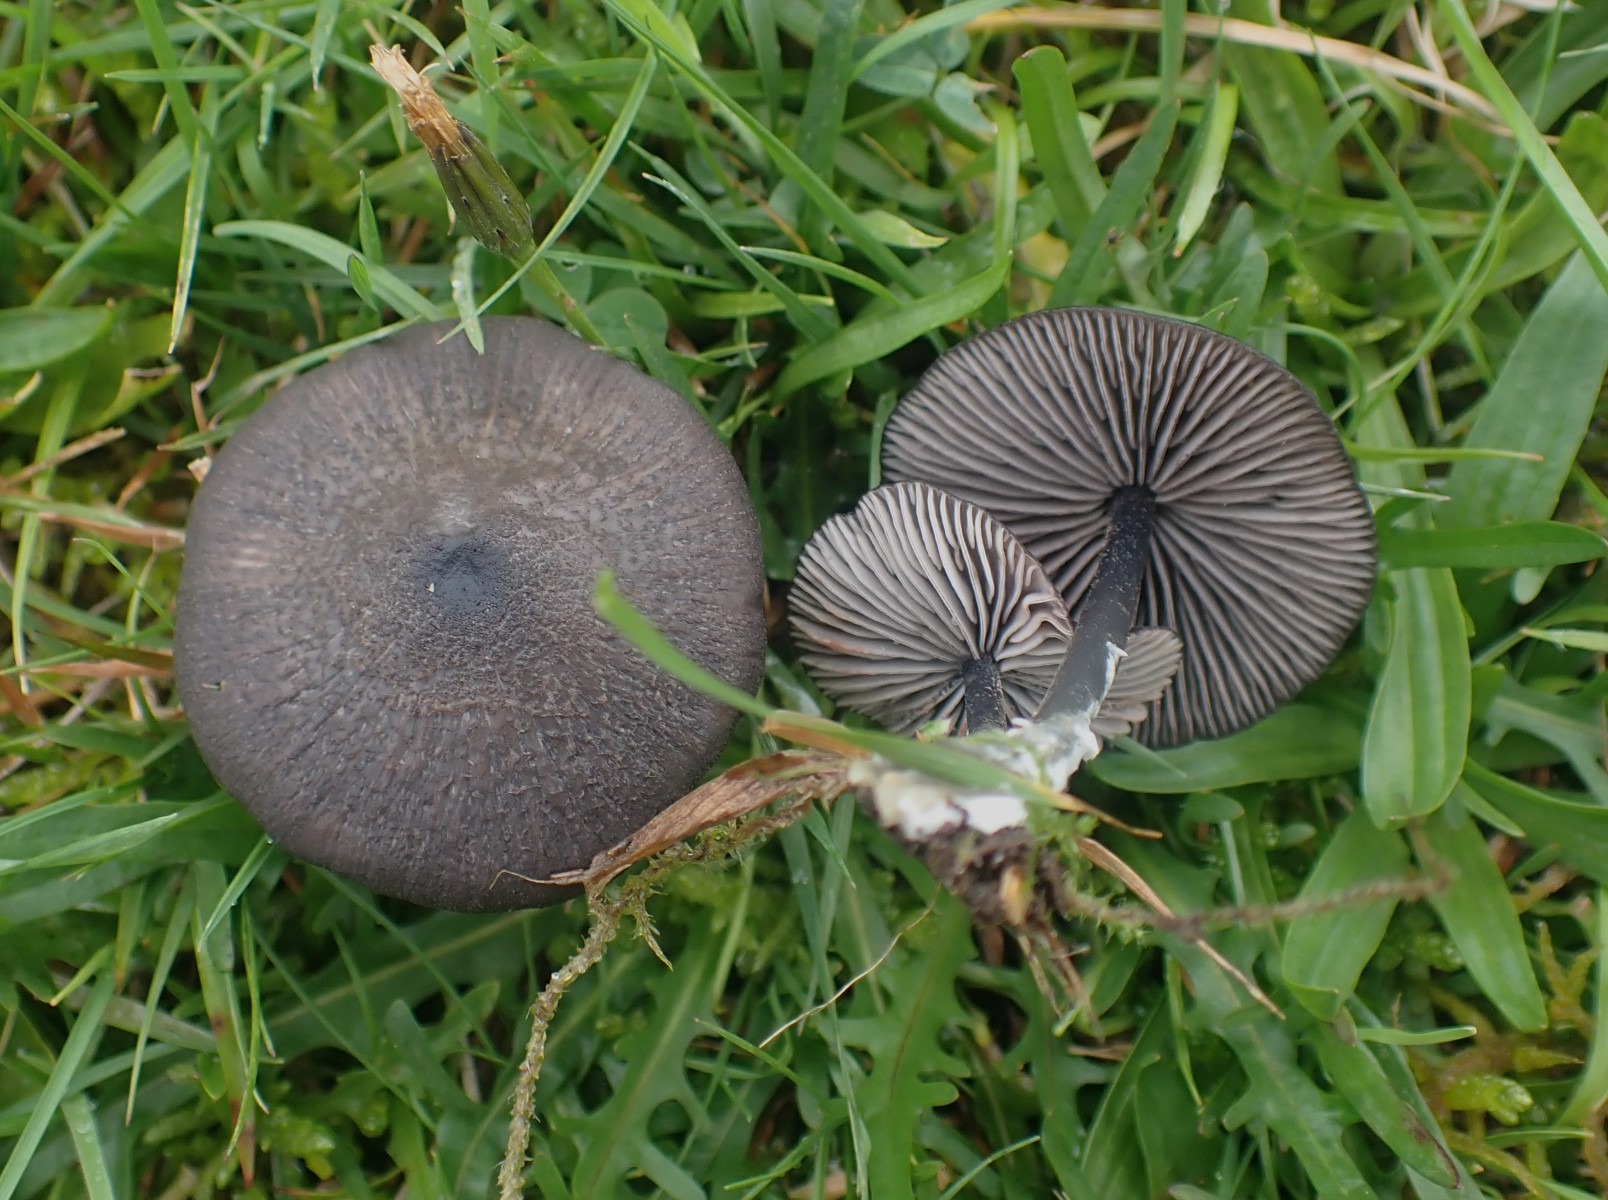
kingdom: Fungi
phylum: Basidiomycota
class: Agaricomycetes
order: Agaricales
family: Entolomataceae
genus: Entoloma
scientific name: Entoloma
